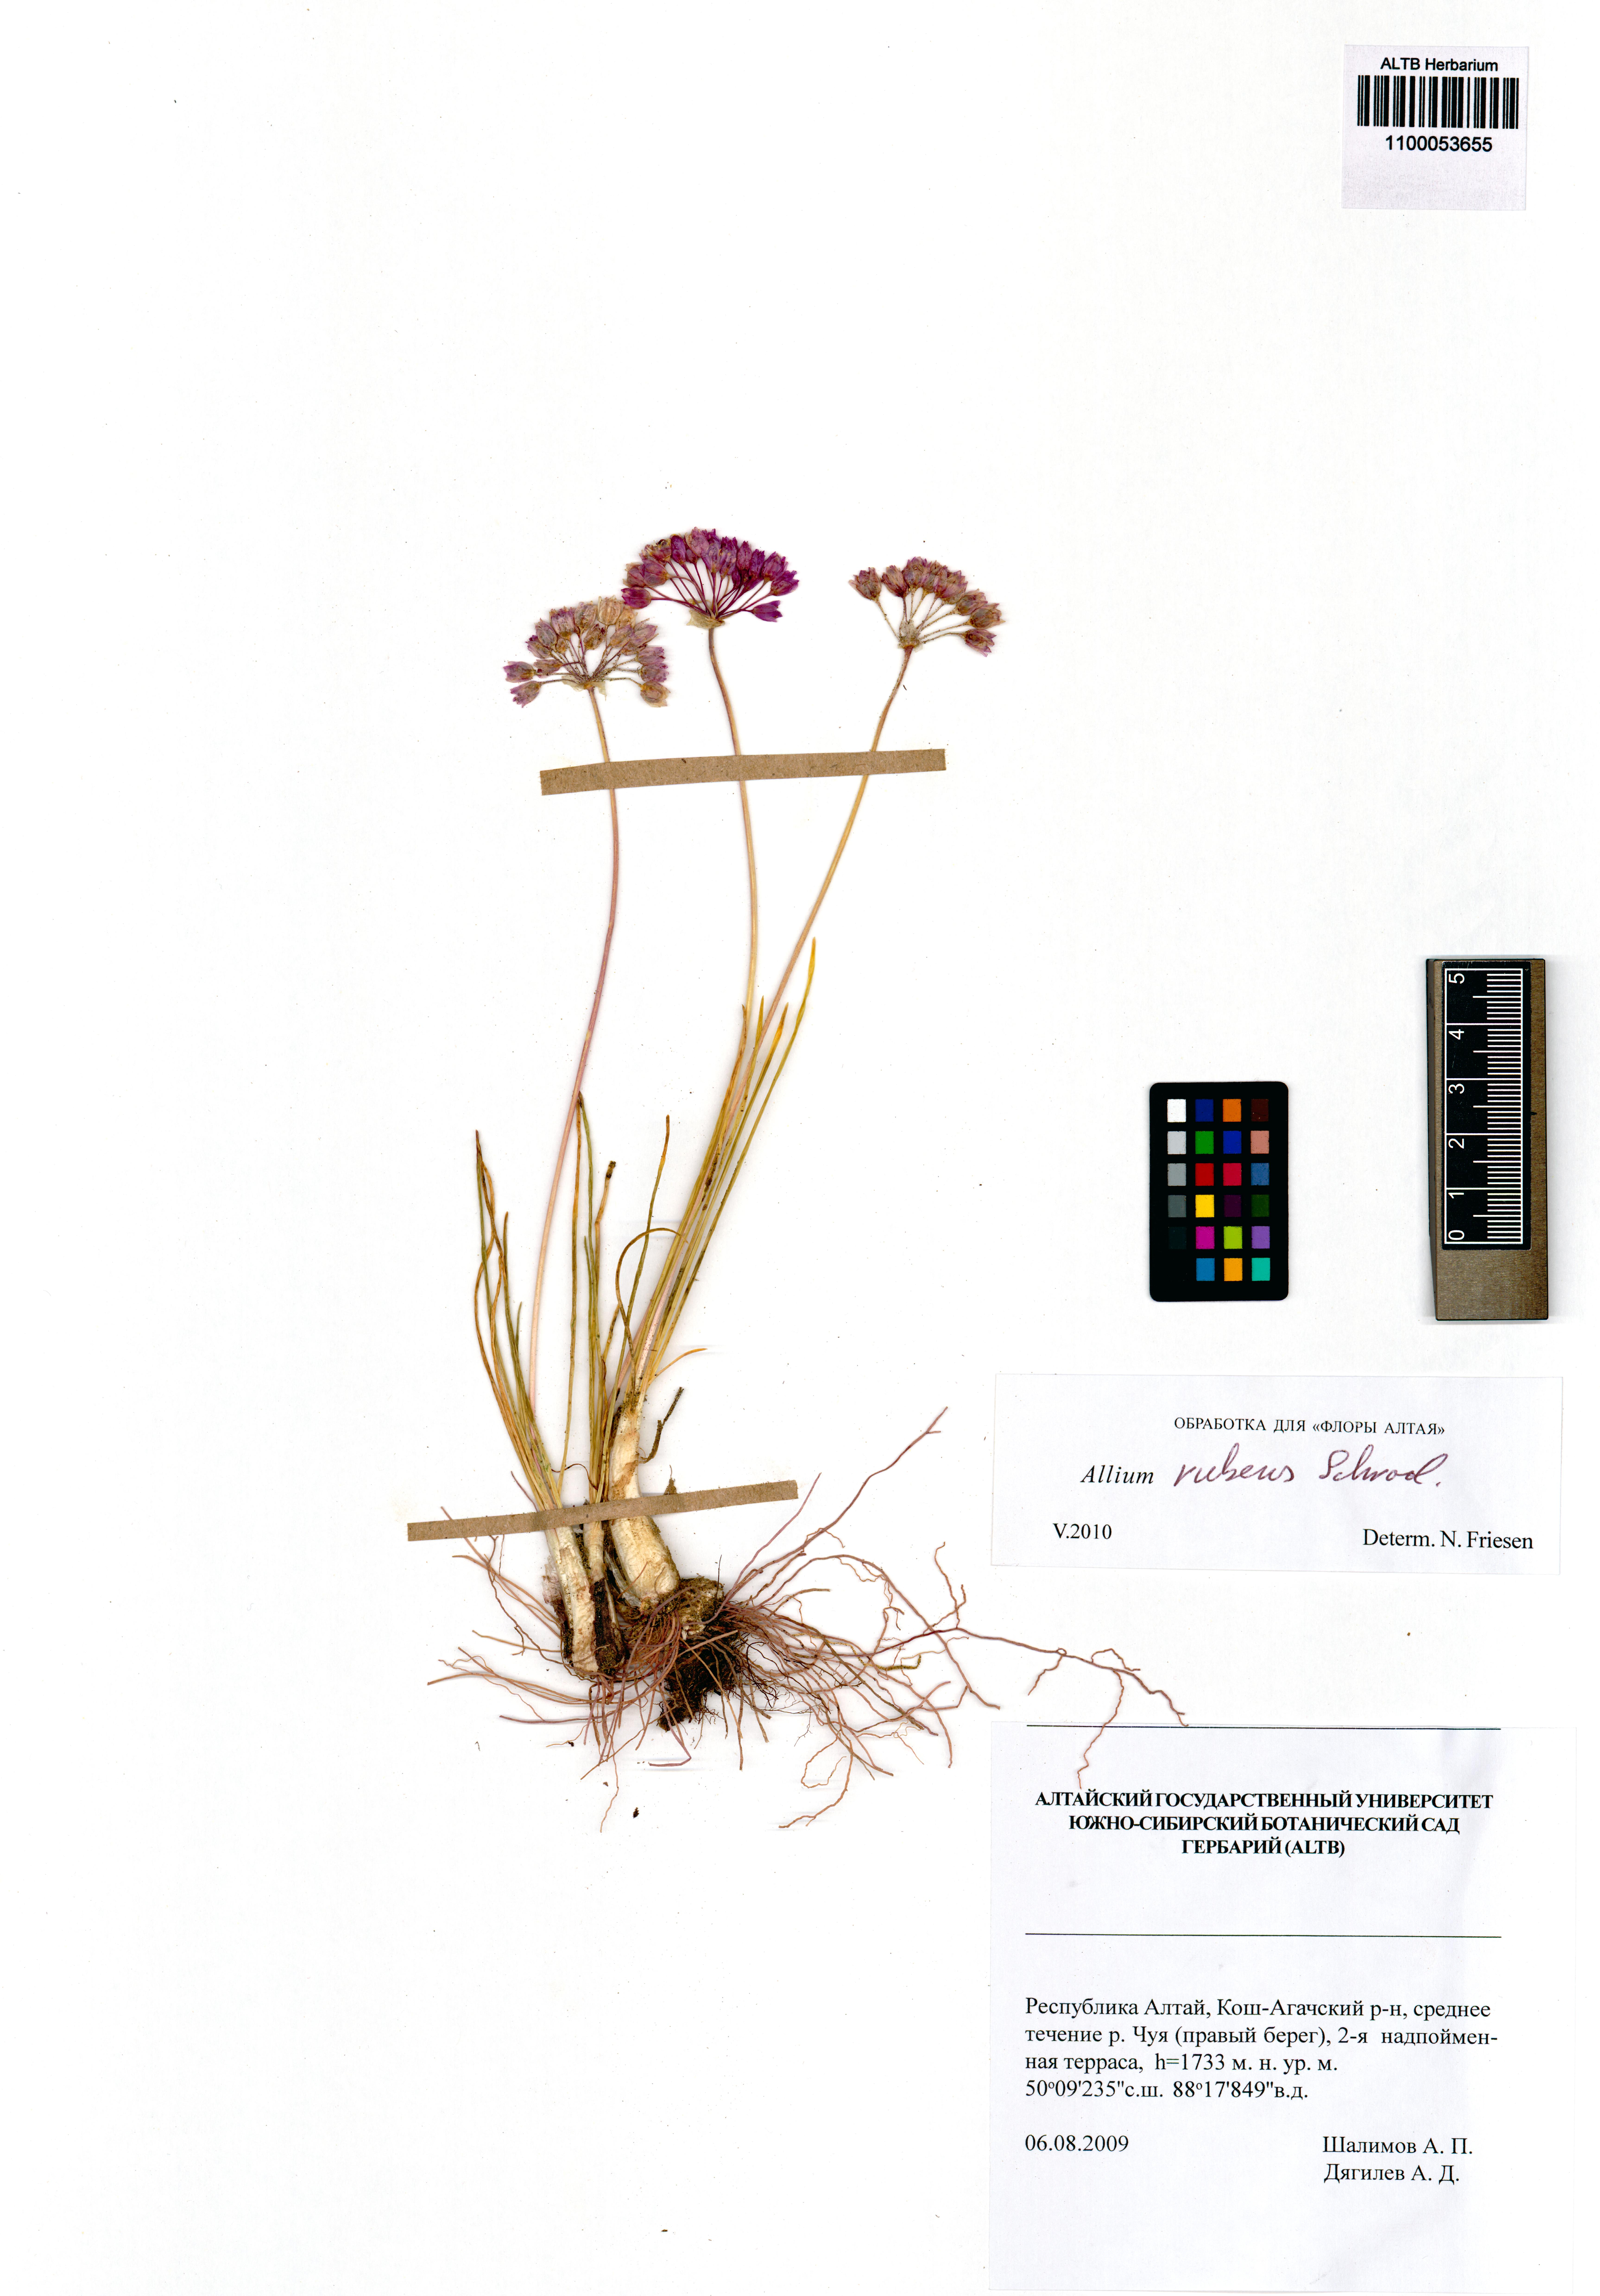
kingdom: Plantae
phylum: Tracheophyta
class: Liliopsida
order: Asparagales
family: Amaryllidaceae
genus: Allium
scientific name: Allium rubens
